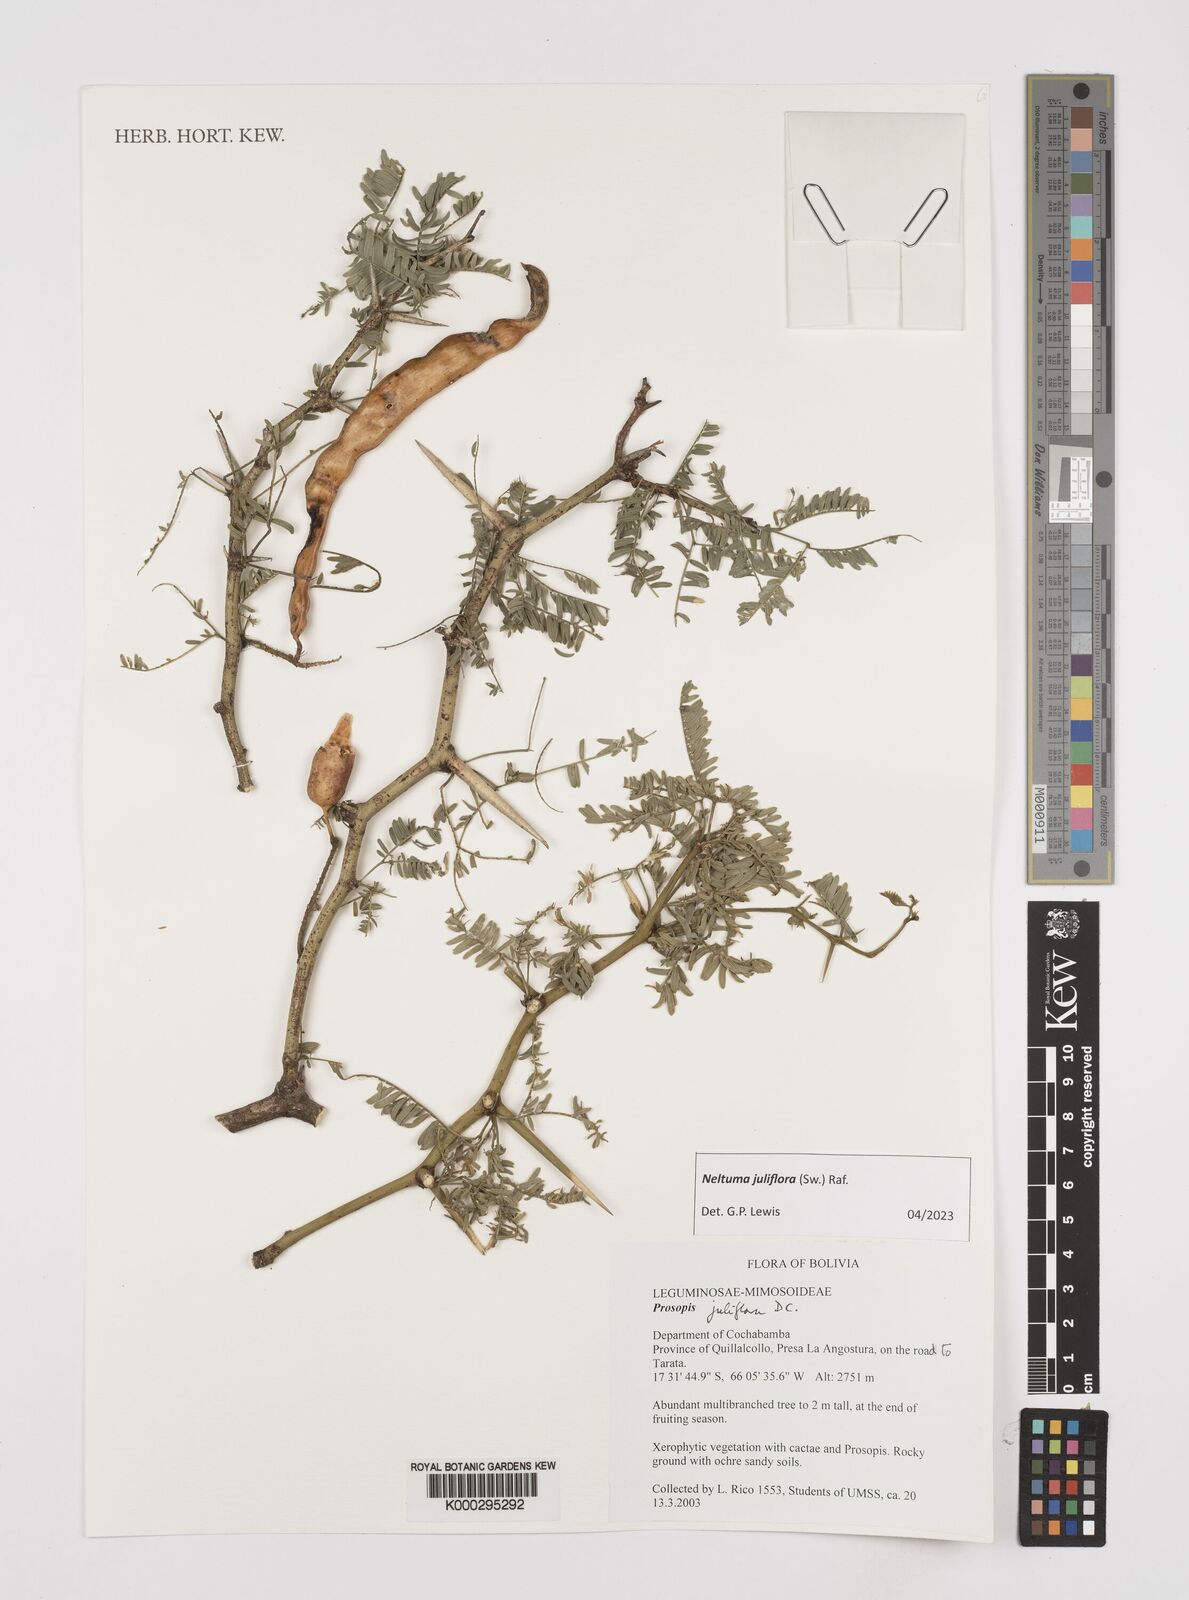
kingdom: Plantae
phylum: Tracheophyta
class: Magnoliopsida
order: Fabales
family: Fabaceae
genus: Prosopis
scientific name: Prosopis juliflora
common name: Mesquite
